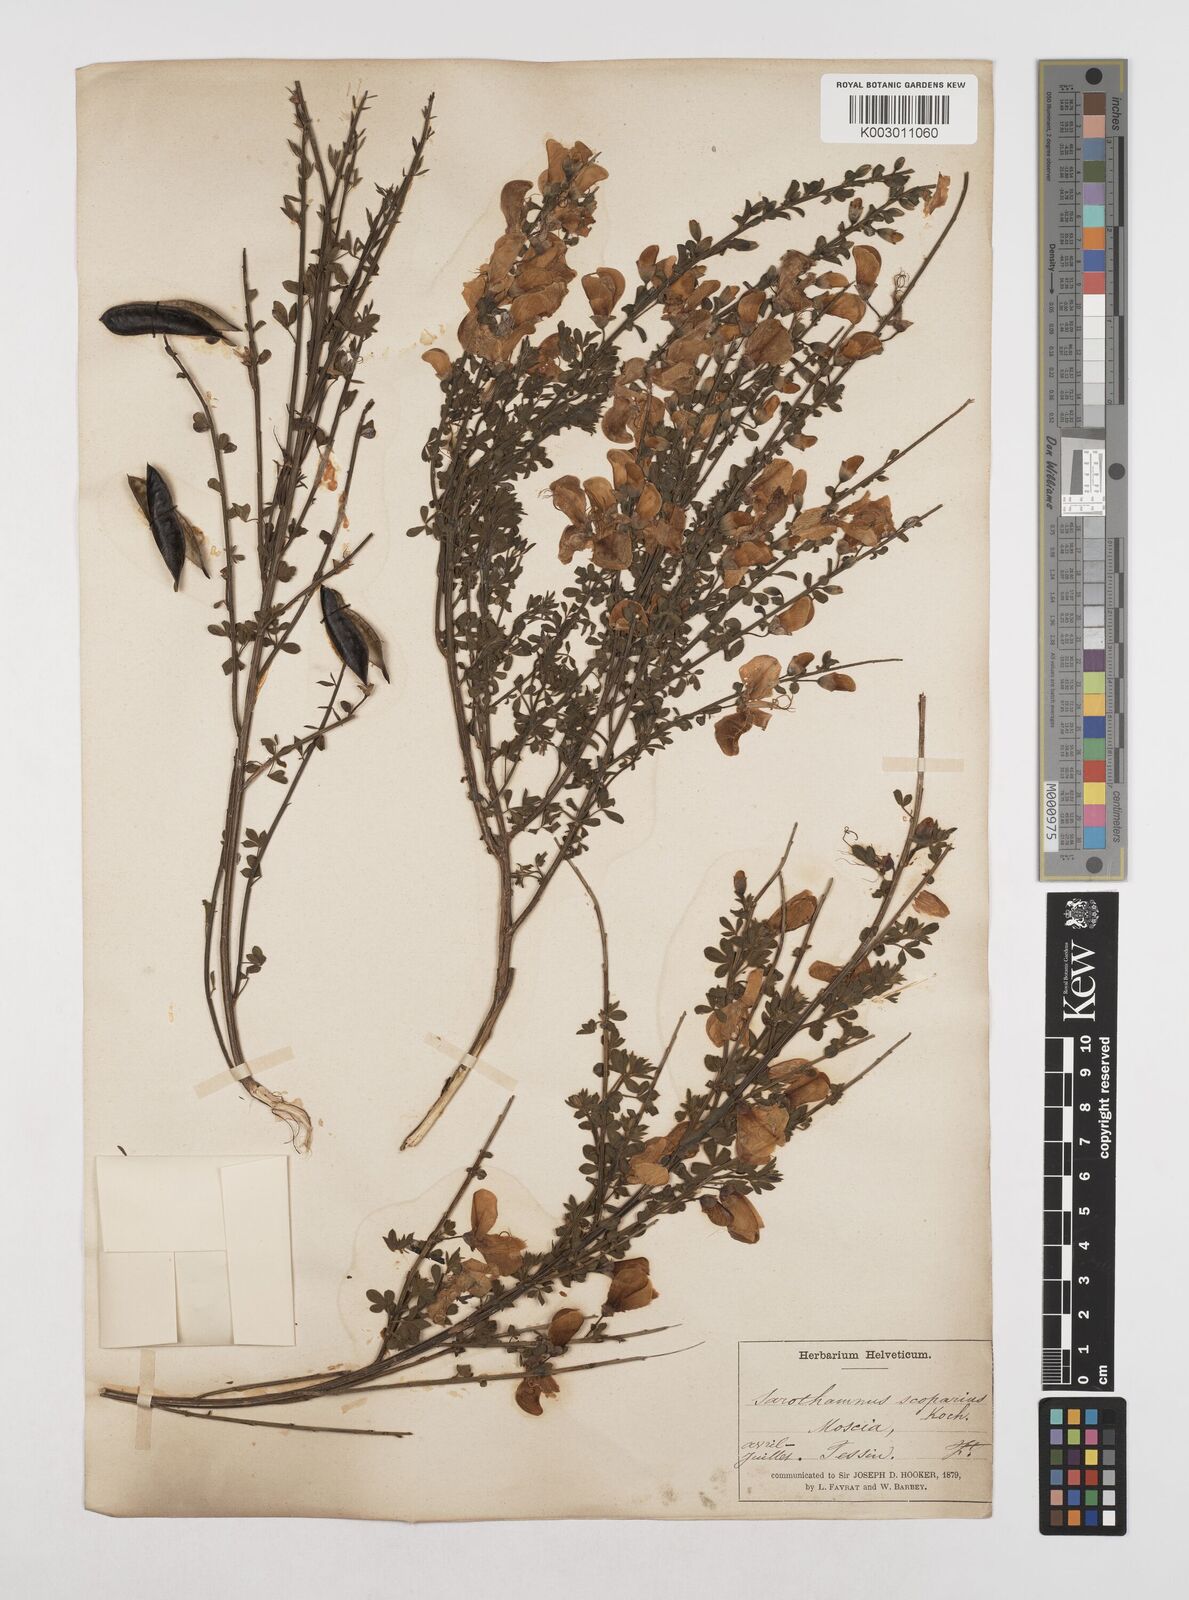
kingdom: Plantae
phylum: Tracheophyta
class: Magnoliopsida
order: Fabales
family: Fabaceae
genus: Cytisus
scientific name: Cytisus scoparius
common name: Scotch broom
